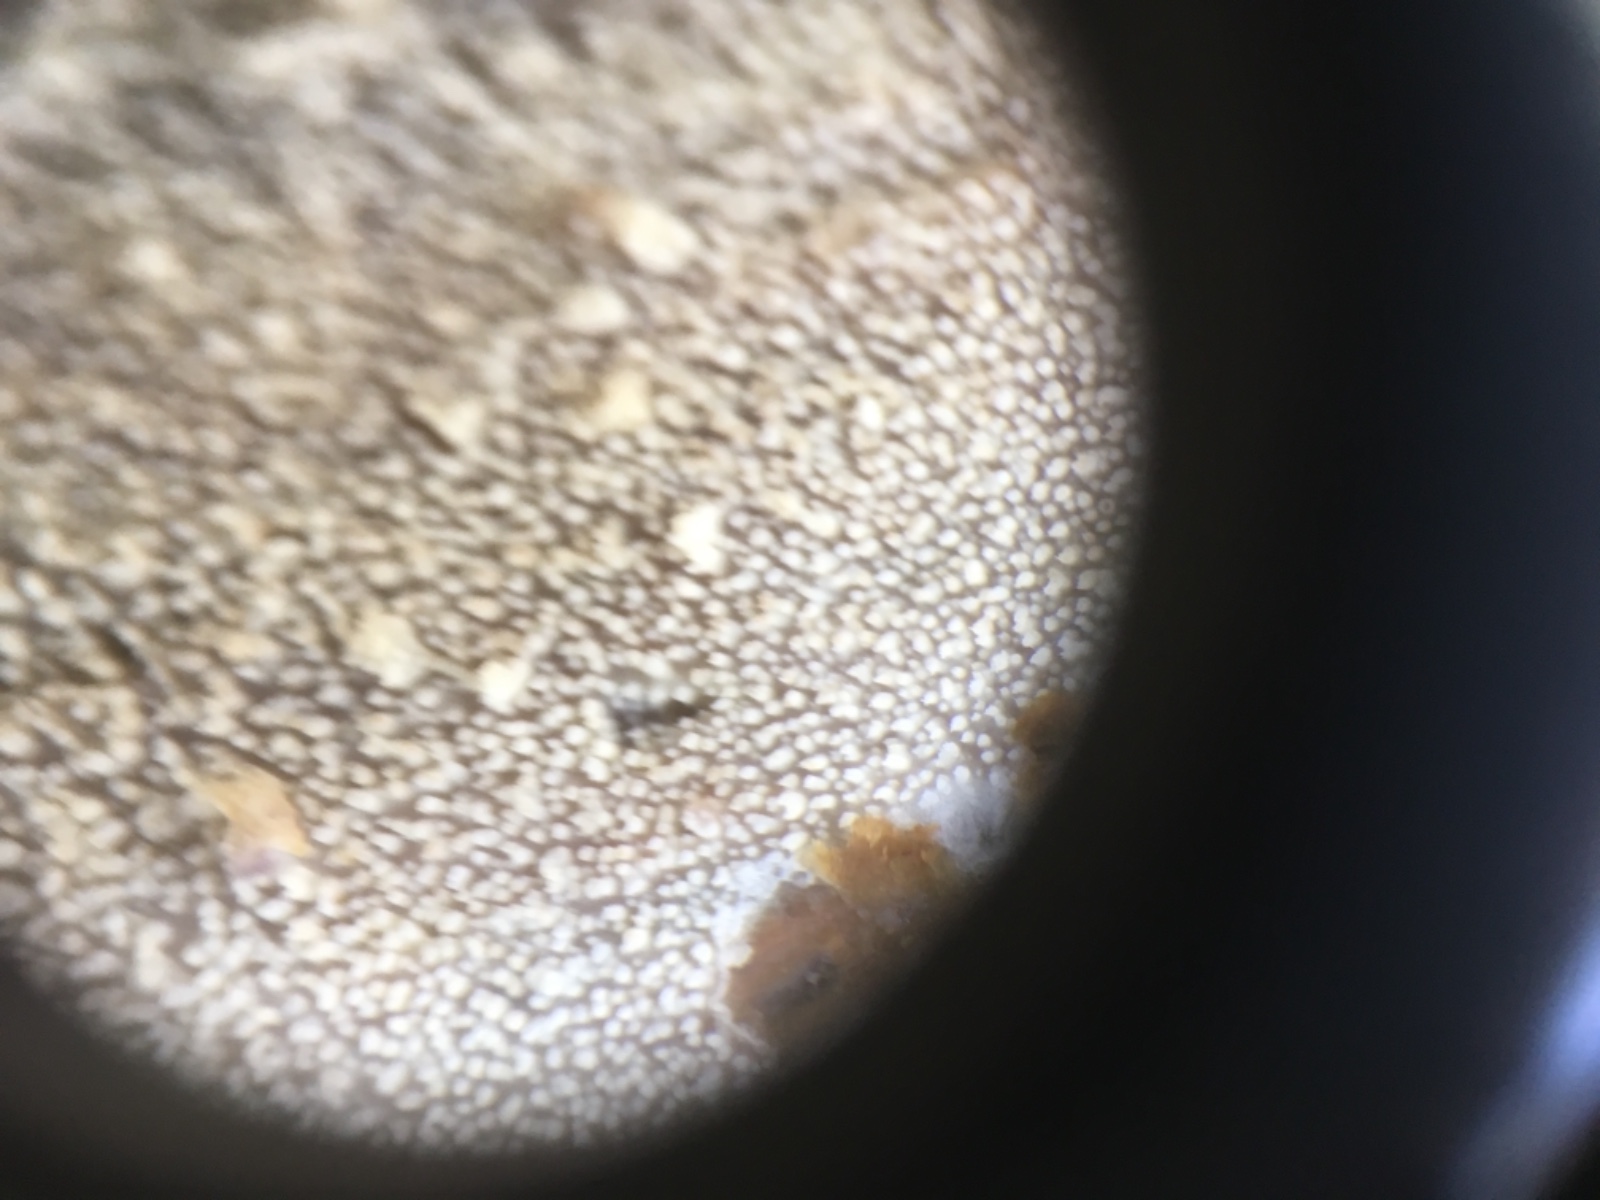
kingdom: Fungi
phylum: Basidiomycota
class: Agaricomycetes
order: Corticiales
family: Corticiaceae
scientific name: Corticiaceae
